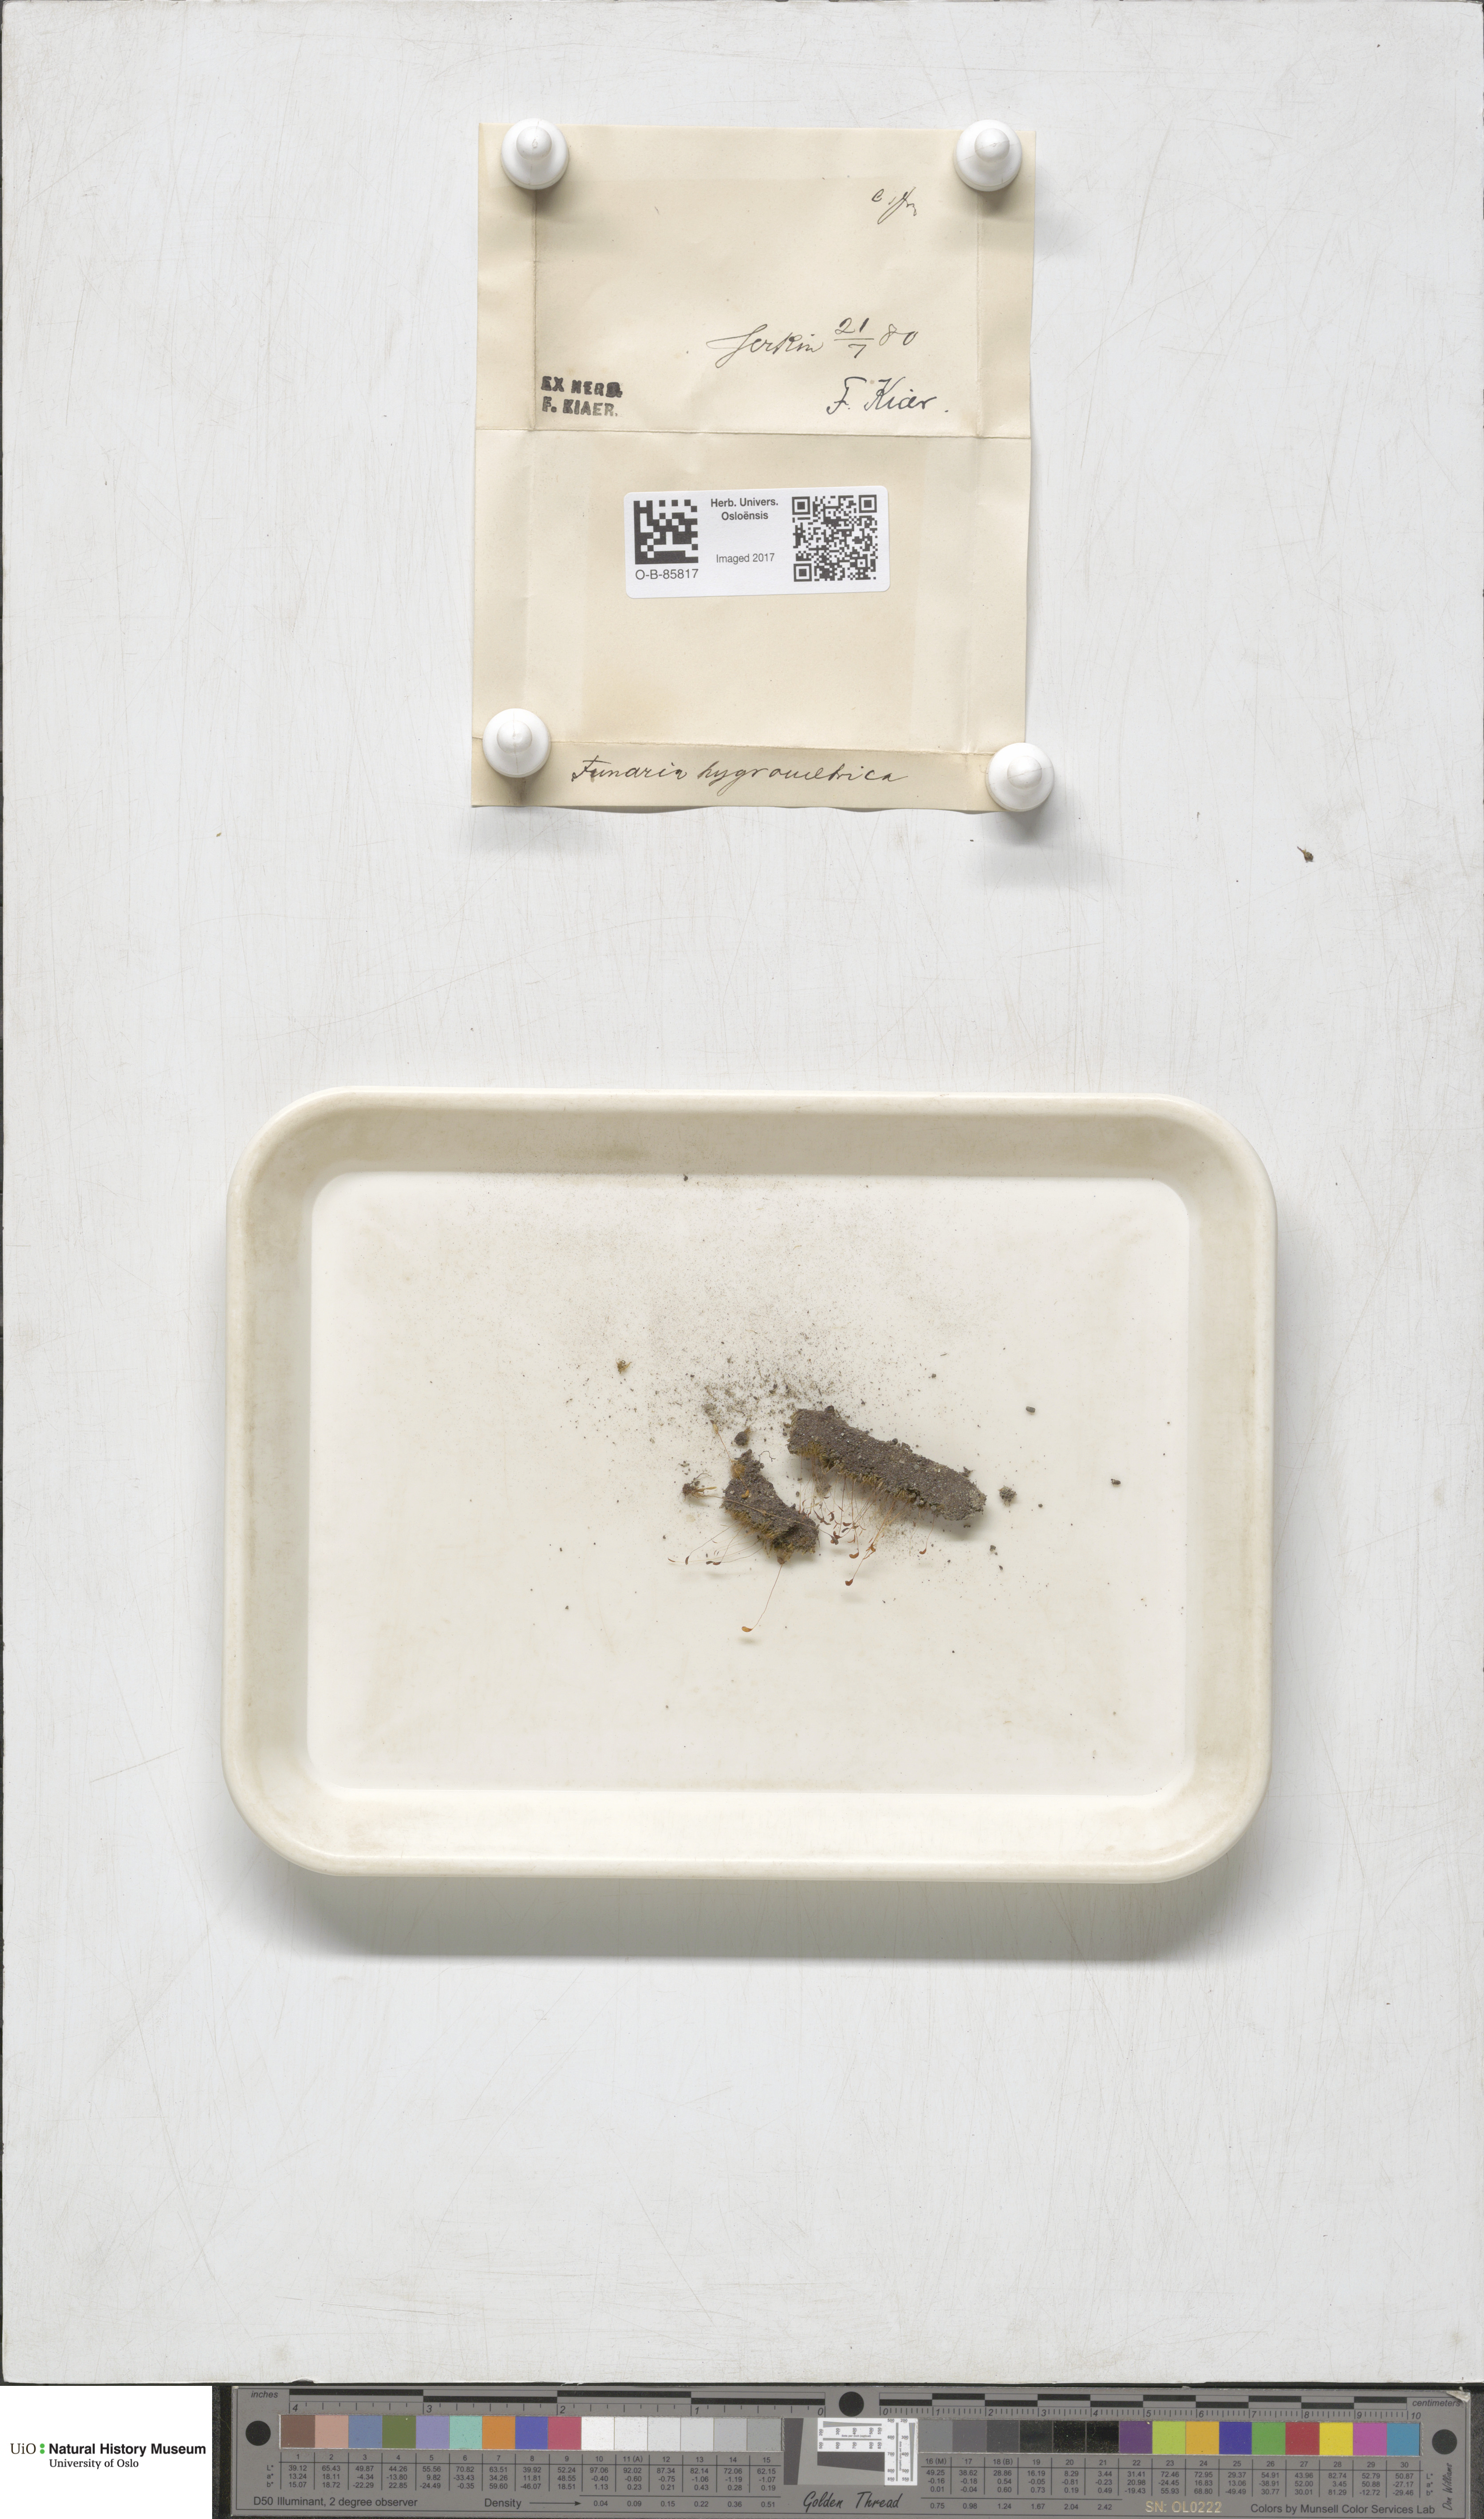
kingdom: Plantae
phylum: Bryophyta
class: Bryopsida
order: Funariales
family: Funariaceae
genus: Funaria
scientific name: Funaria hygrometrica
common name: Common cord moss
